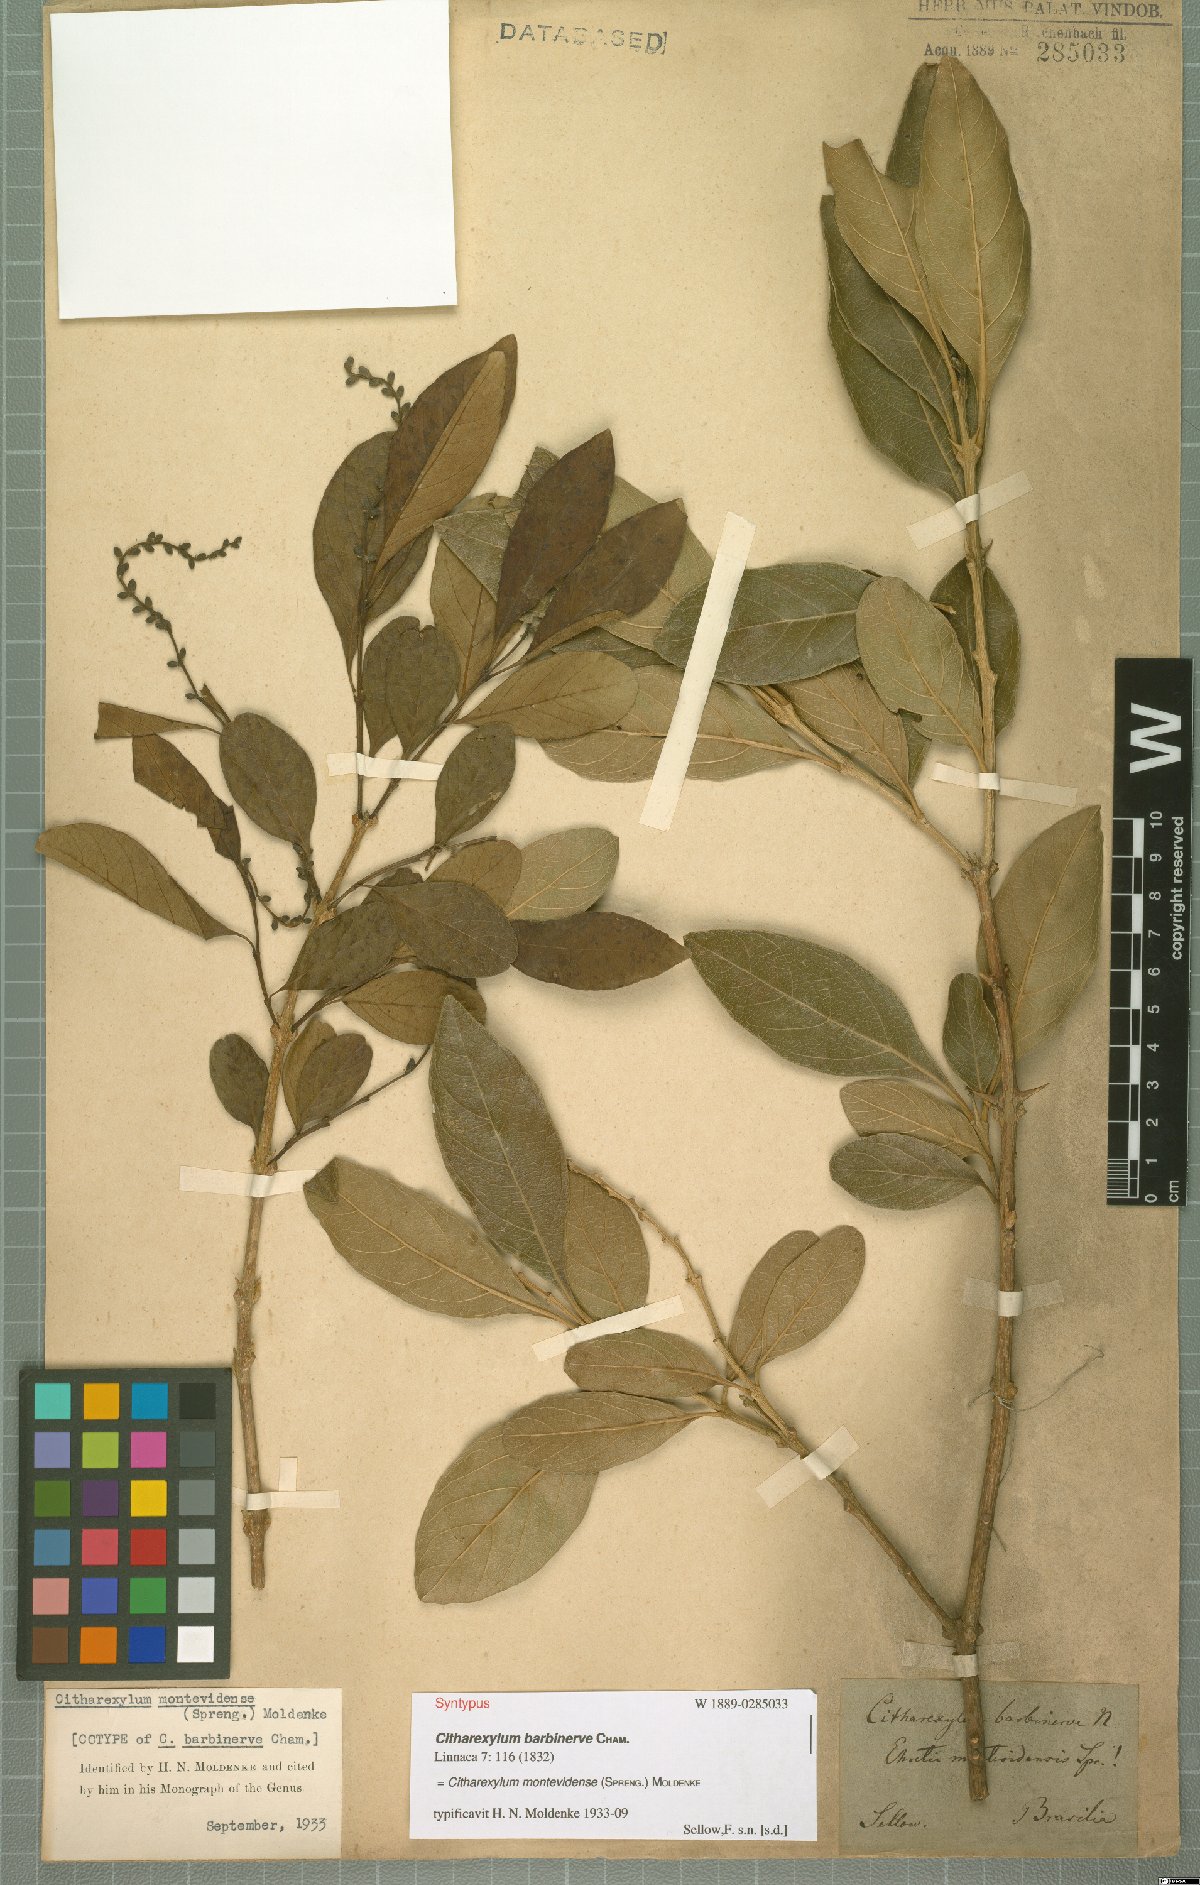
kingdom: Plantae
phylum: Tracheophyta
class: Magnoliopsida
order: Lamiales
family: Verbenaceae
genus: Citharexylum
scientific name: Citharexylum montevidense
